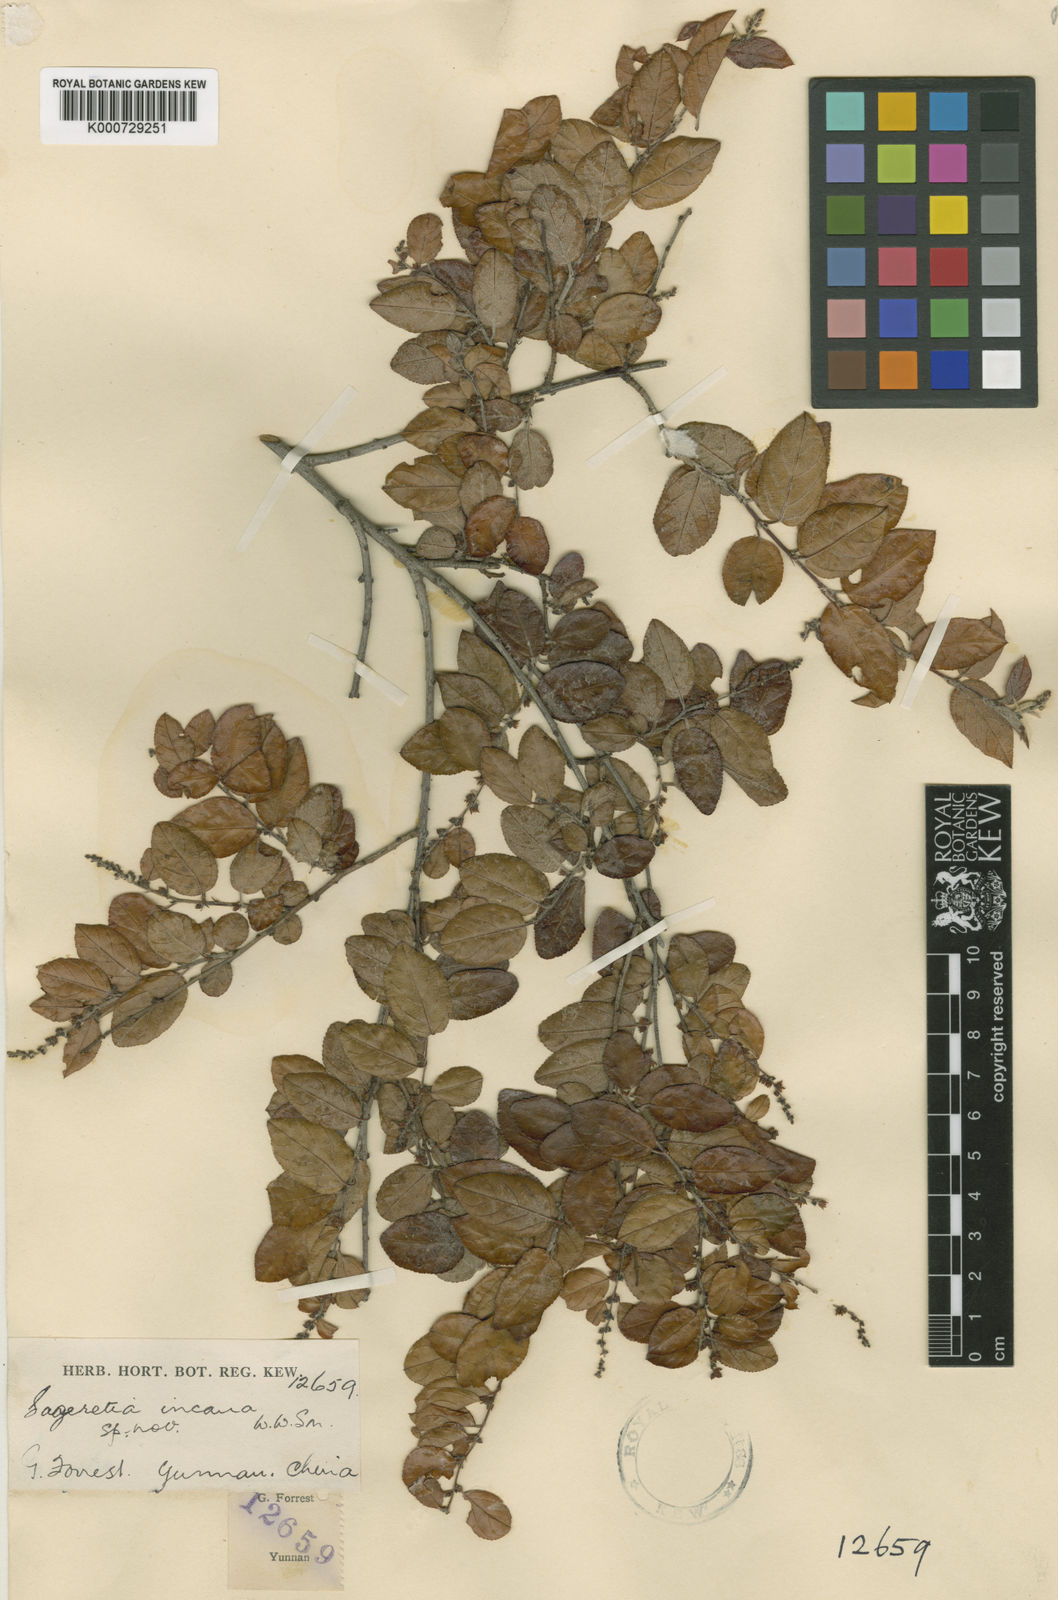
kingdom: Plantae
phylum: Tracheophyta
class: Magnoliopsida
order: Rosales
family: Rhamnaceae
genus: Sageretia
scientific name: Sageretia
